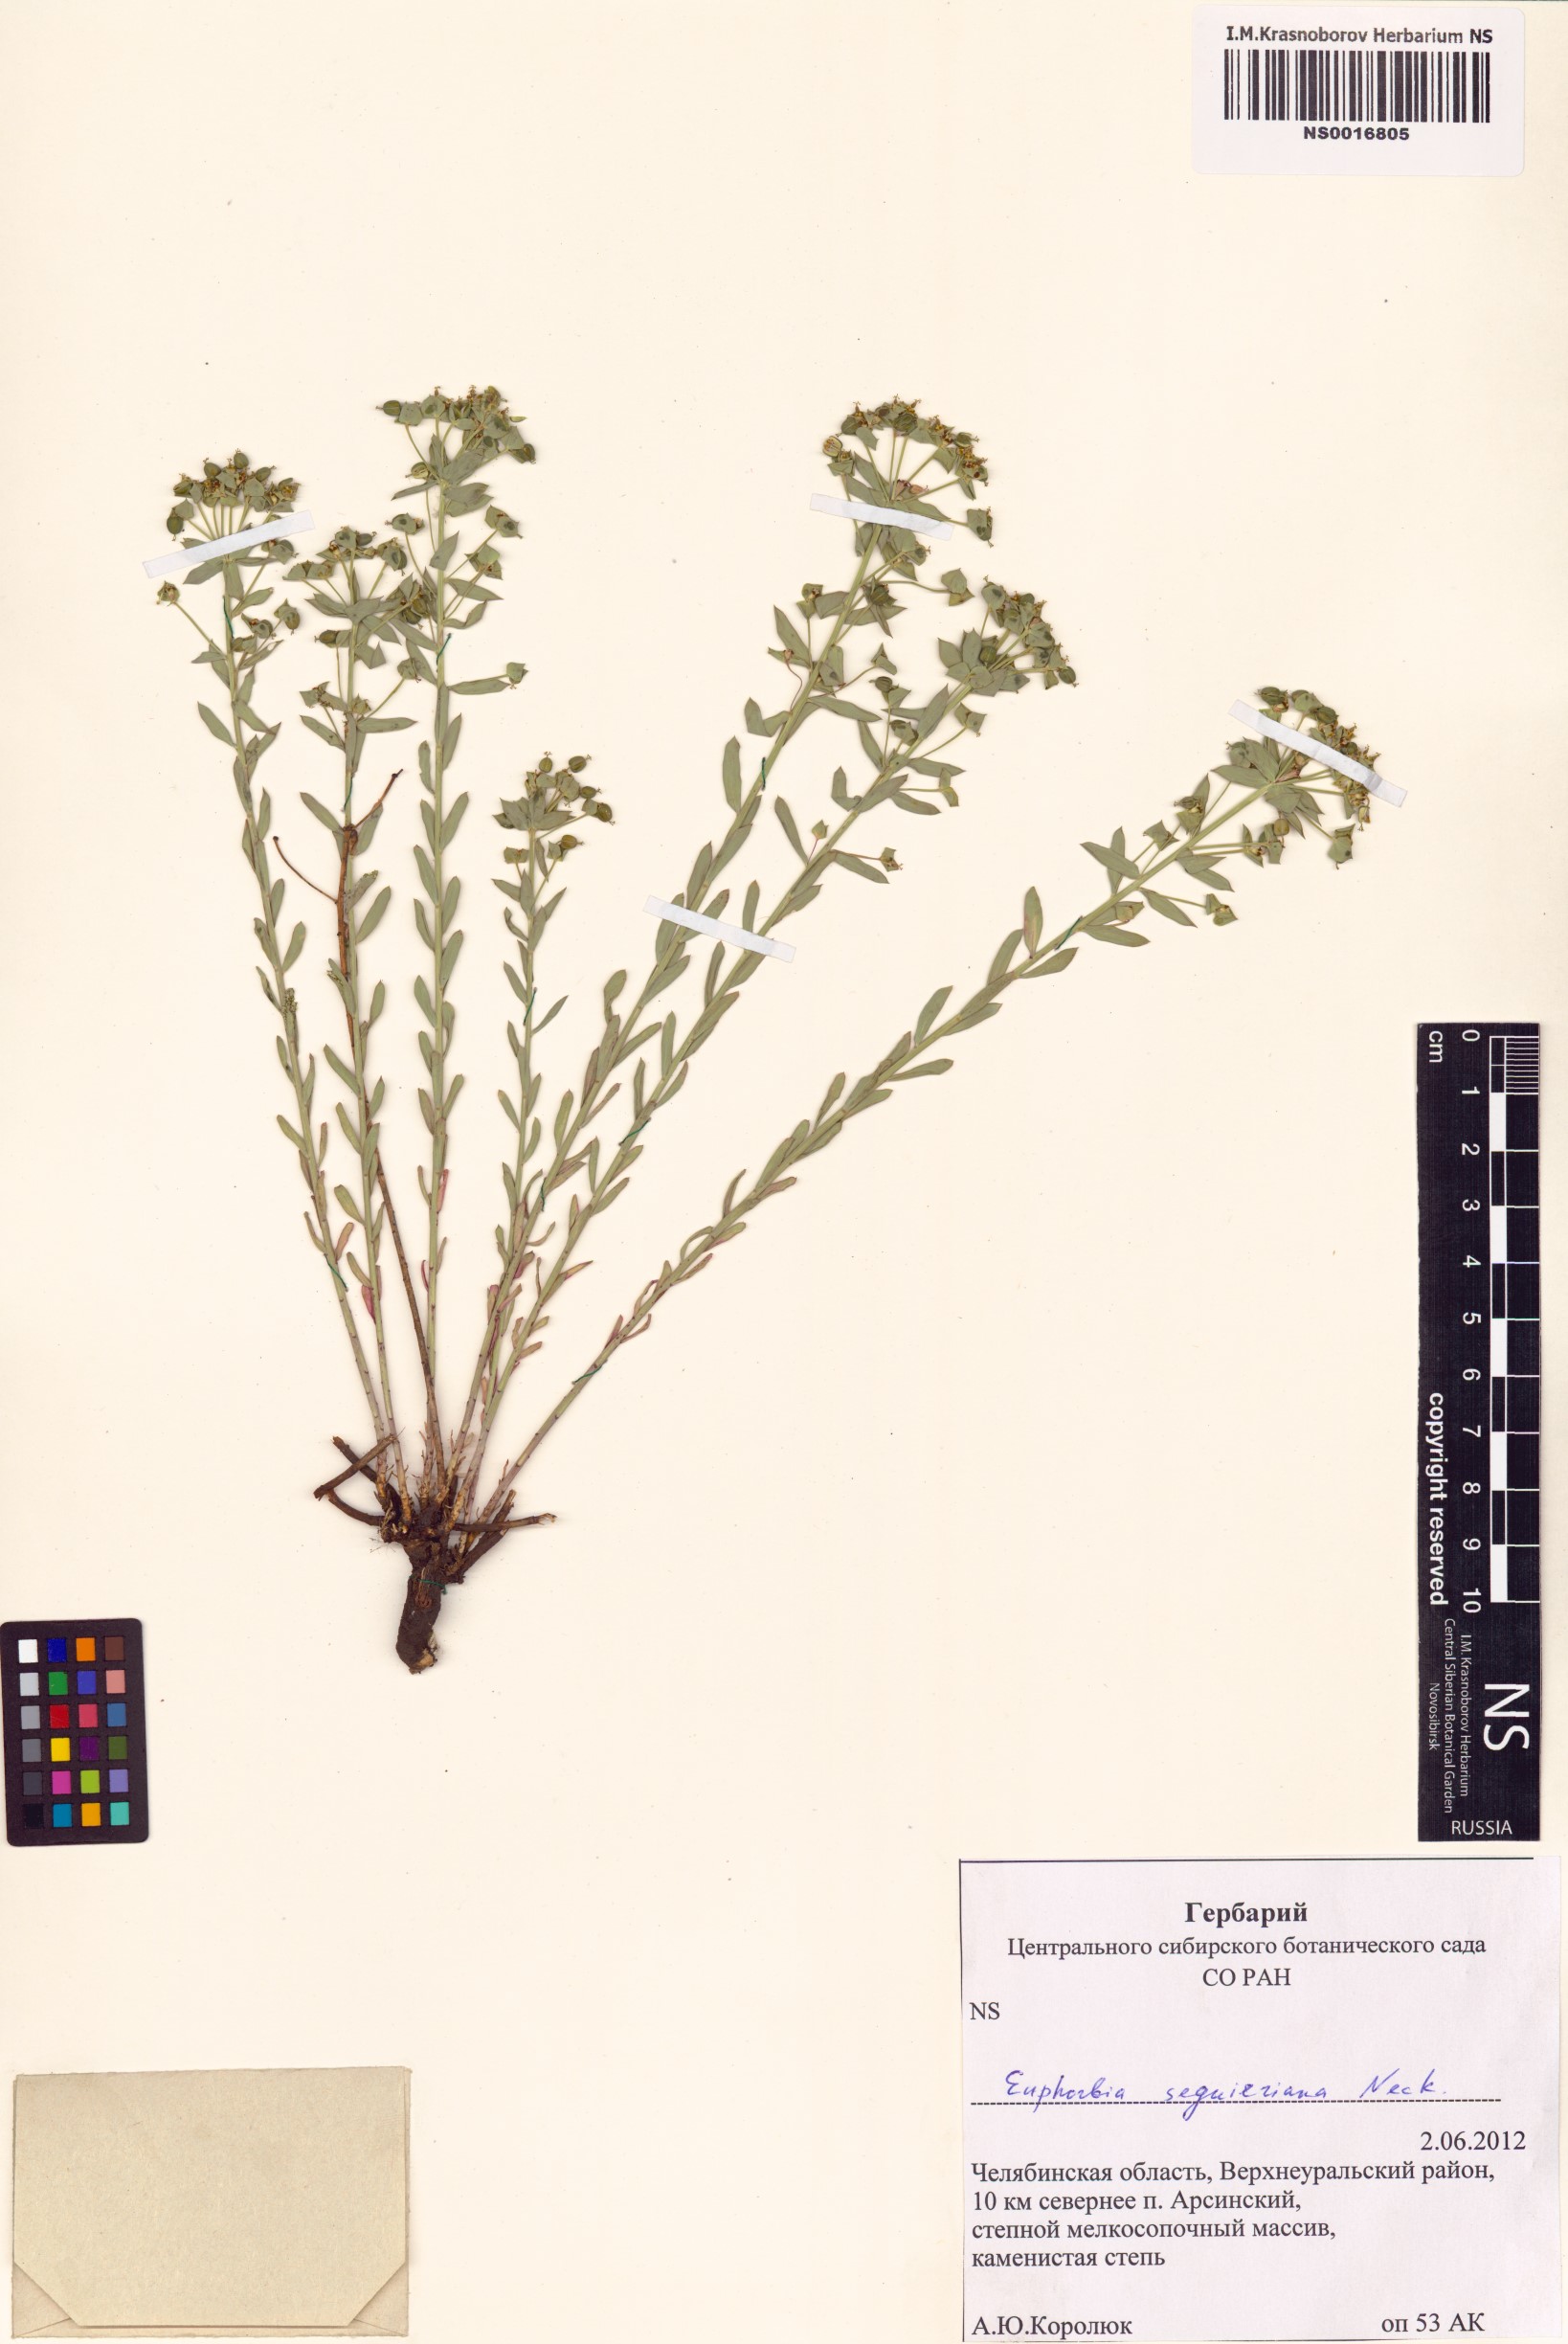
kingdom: Plantae
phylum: Tracheophyta
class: Magnoliopsida
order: Malpighiales
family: Euphorbiaceae
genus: Euphorbia
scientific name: Euphorbia seguieriana
